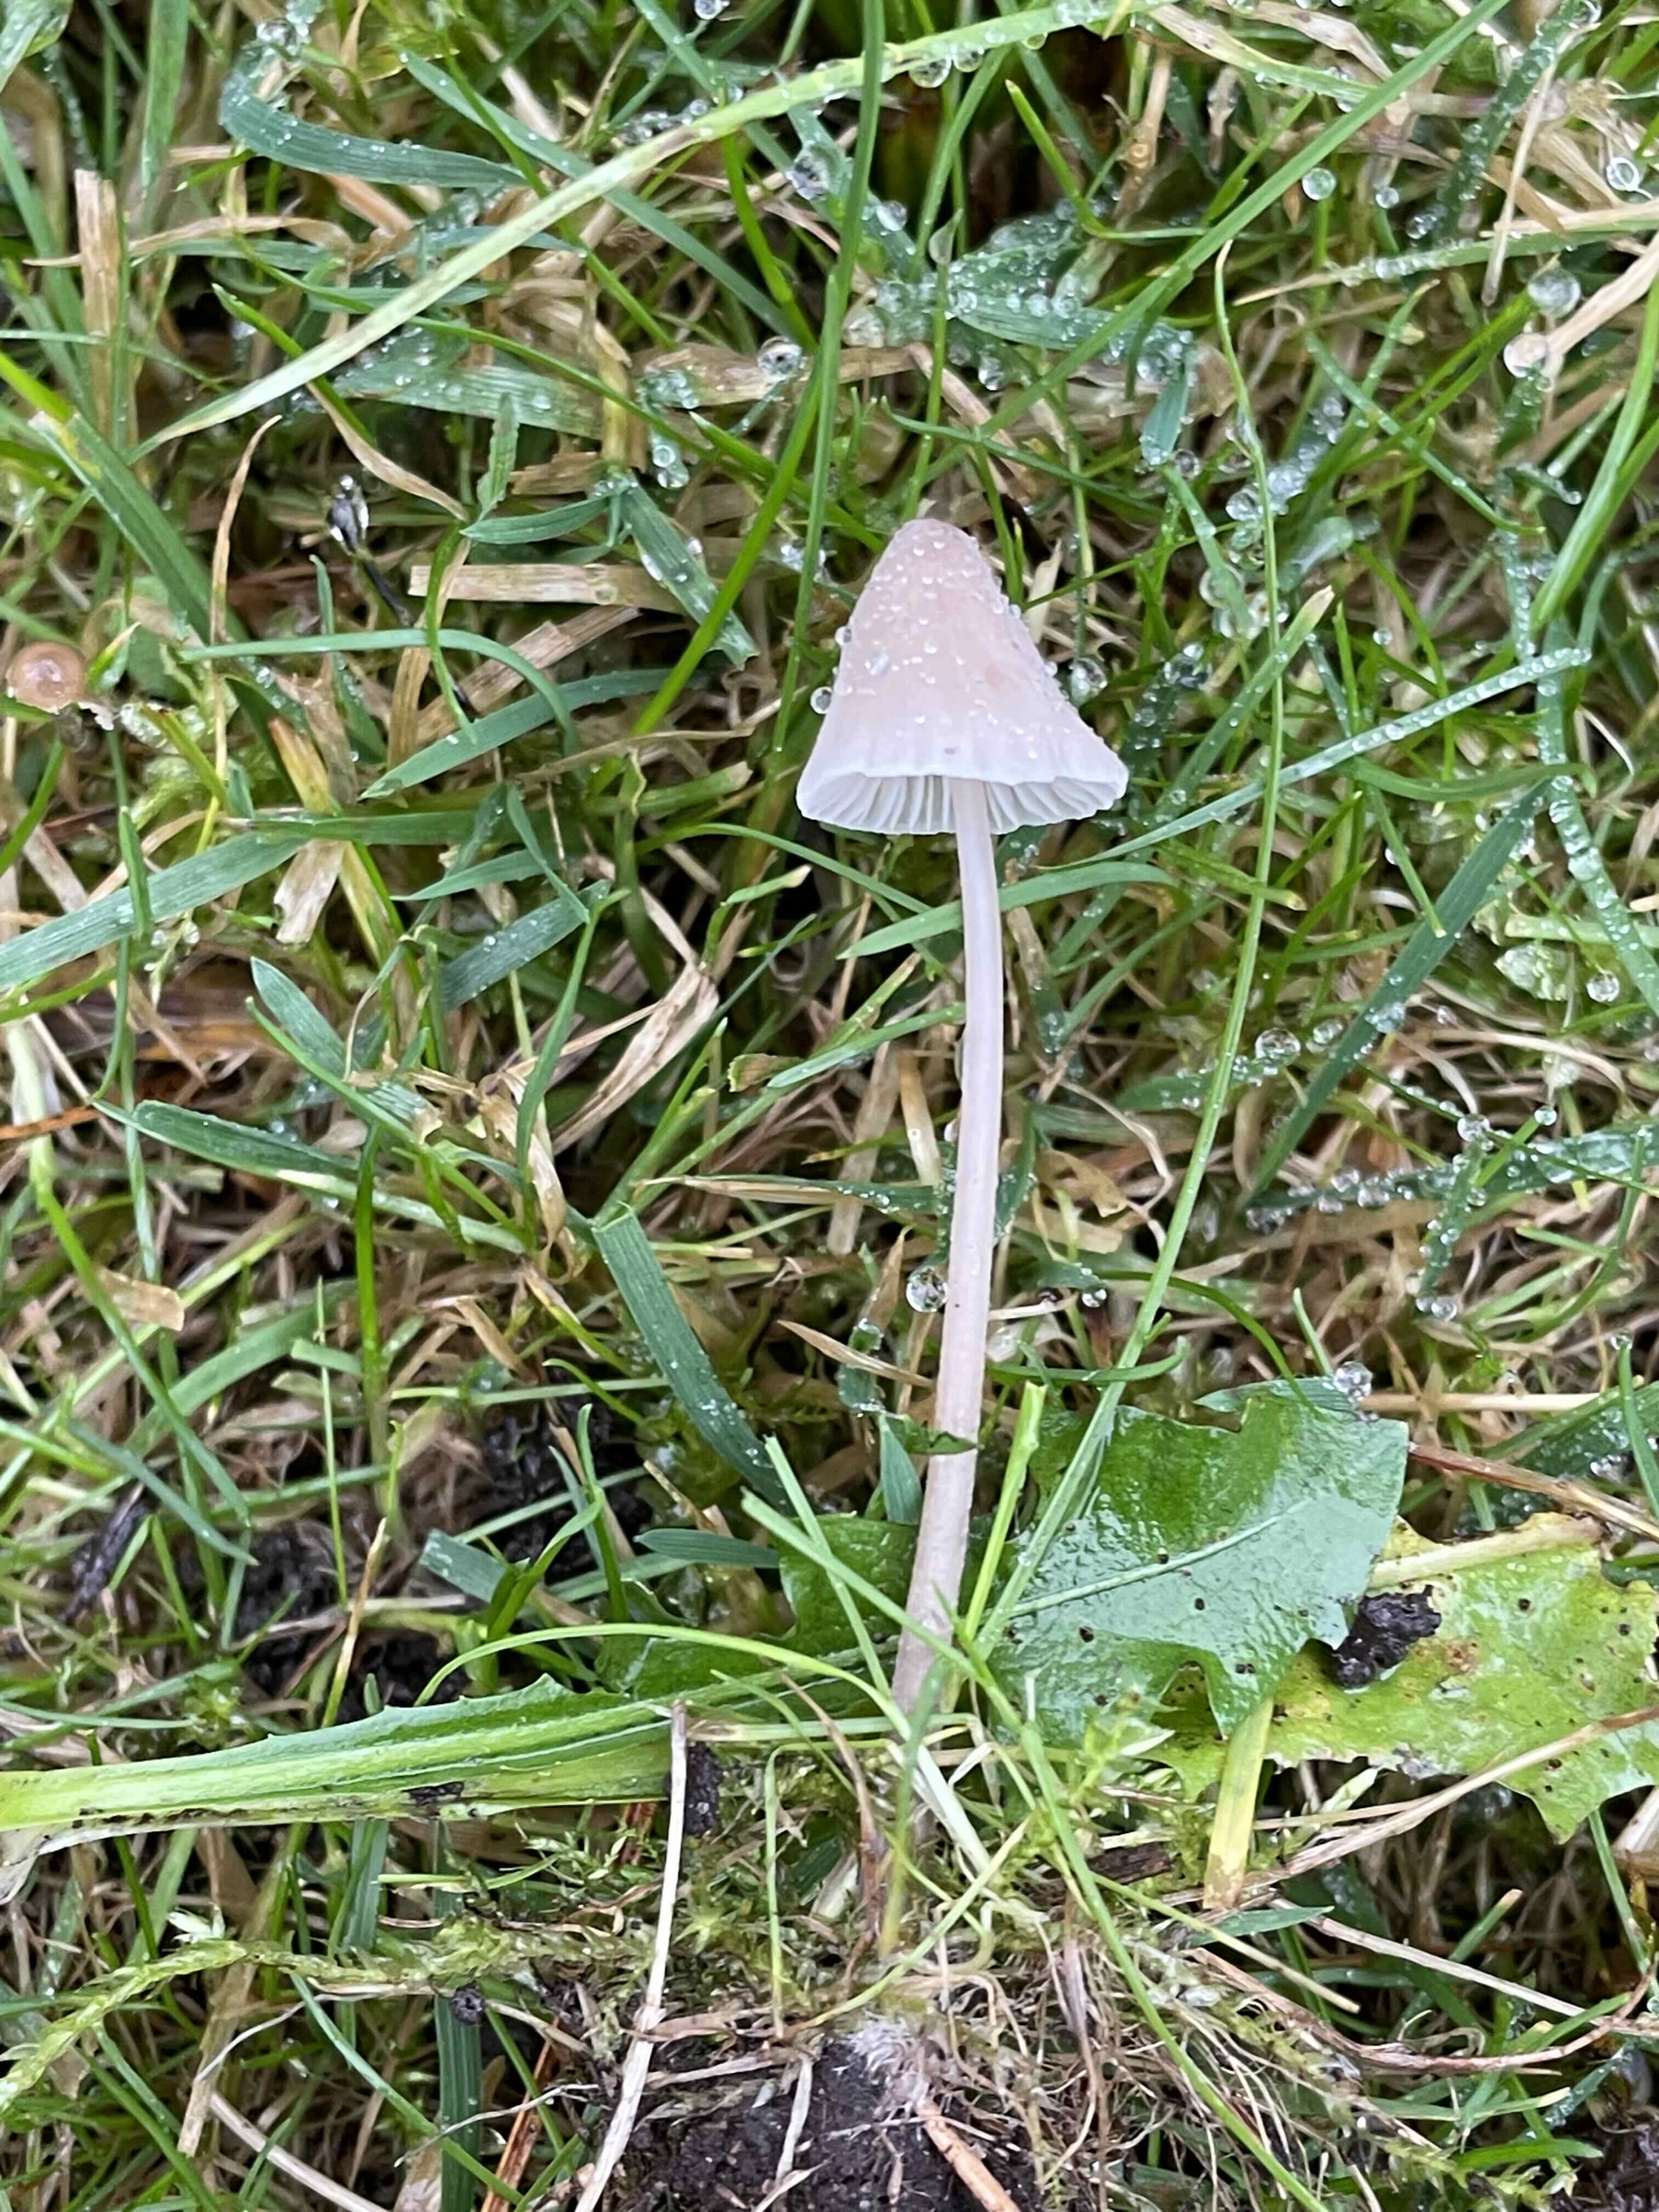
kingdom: Fungi
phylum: Basidiomycota
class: Agaricomycetes
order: Agaricales
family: Mycenaceae
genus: Mycena
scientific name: Mycena leptocephala
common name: klor-huesvamp
